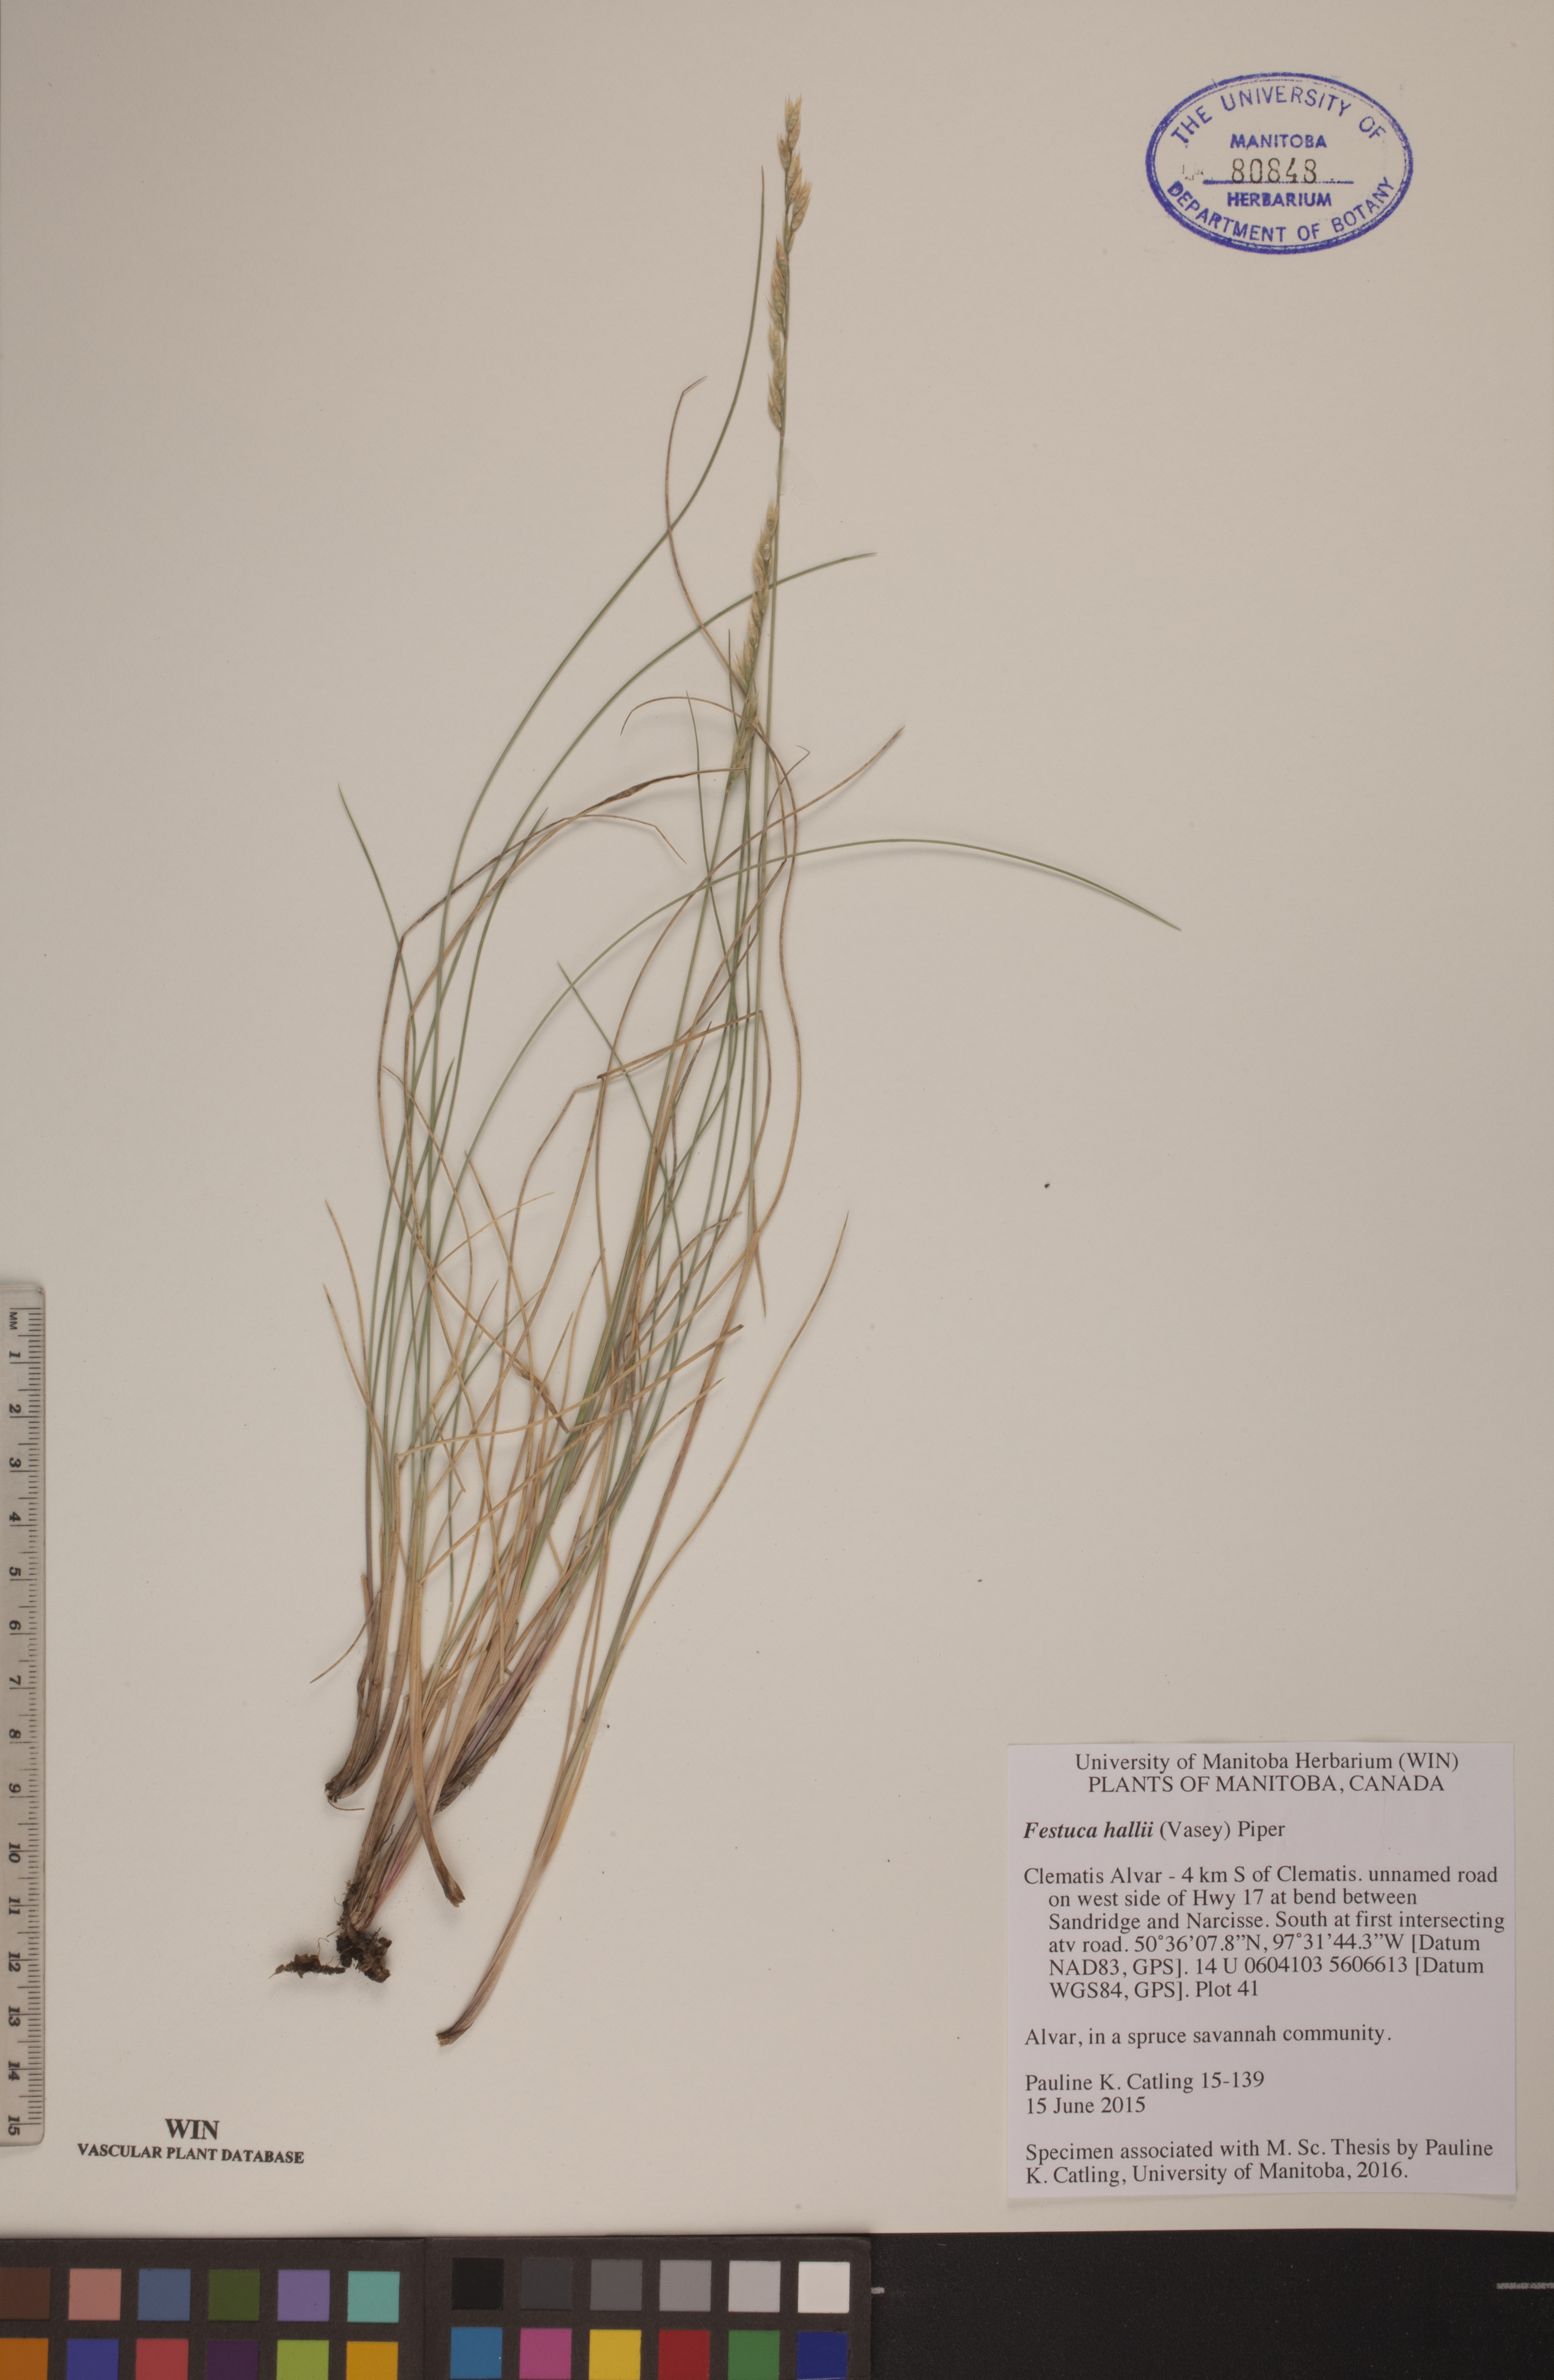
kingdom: Plantae
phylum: Tracheophyta
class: Liliopsida
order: Poales
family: Poaceae
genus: Festuca
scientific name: Festuca hallii
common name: Hall's fescue
